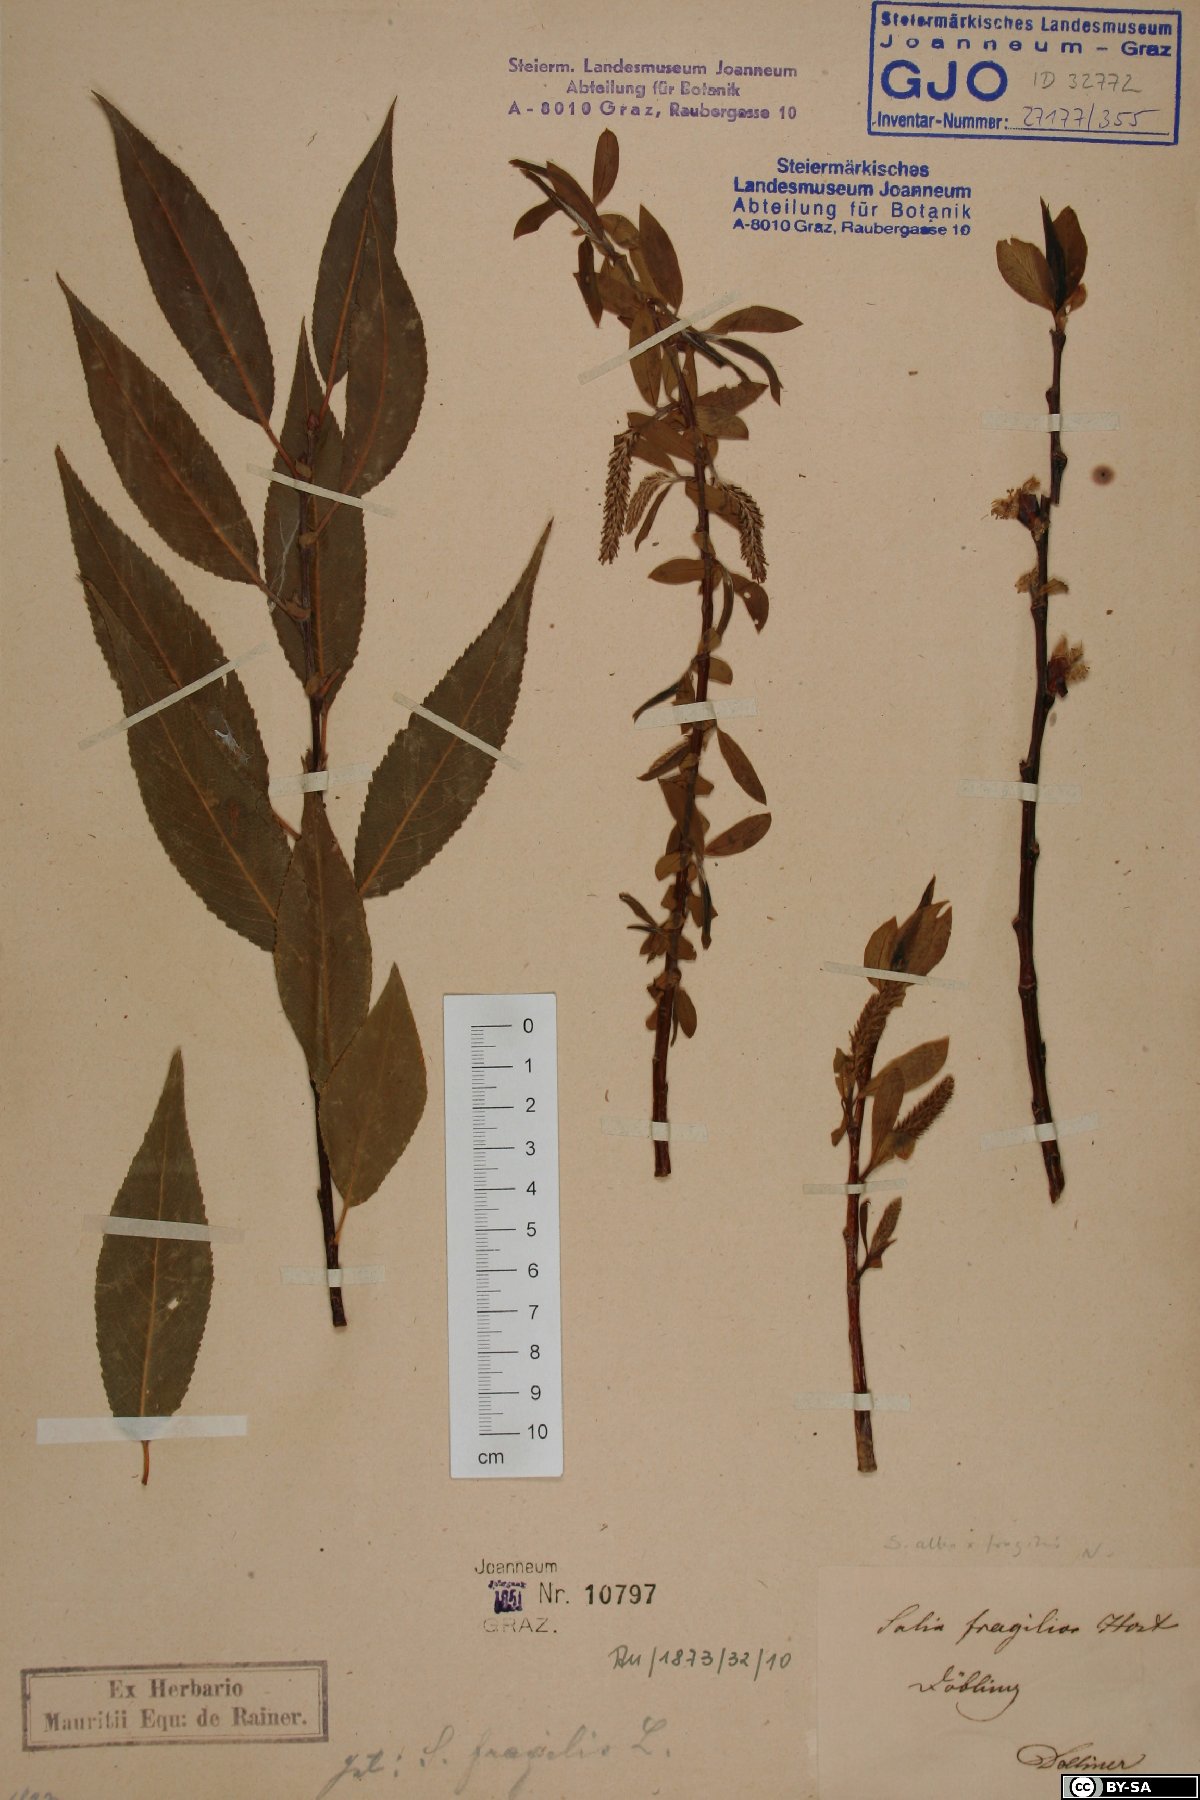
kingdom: Plantae
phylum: Tracheophyta
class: Magnoliopsida
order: Malpighiales
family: Salicaceae
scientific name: Salicaceae
